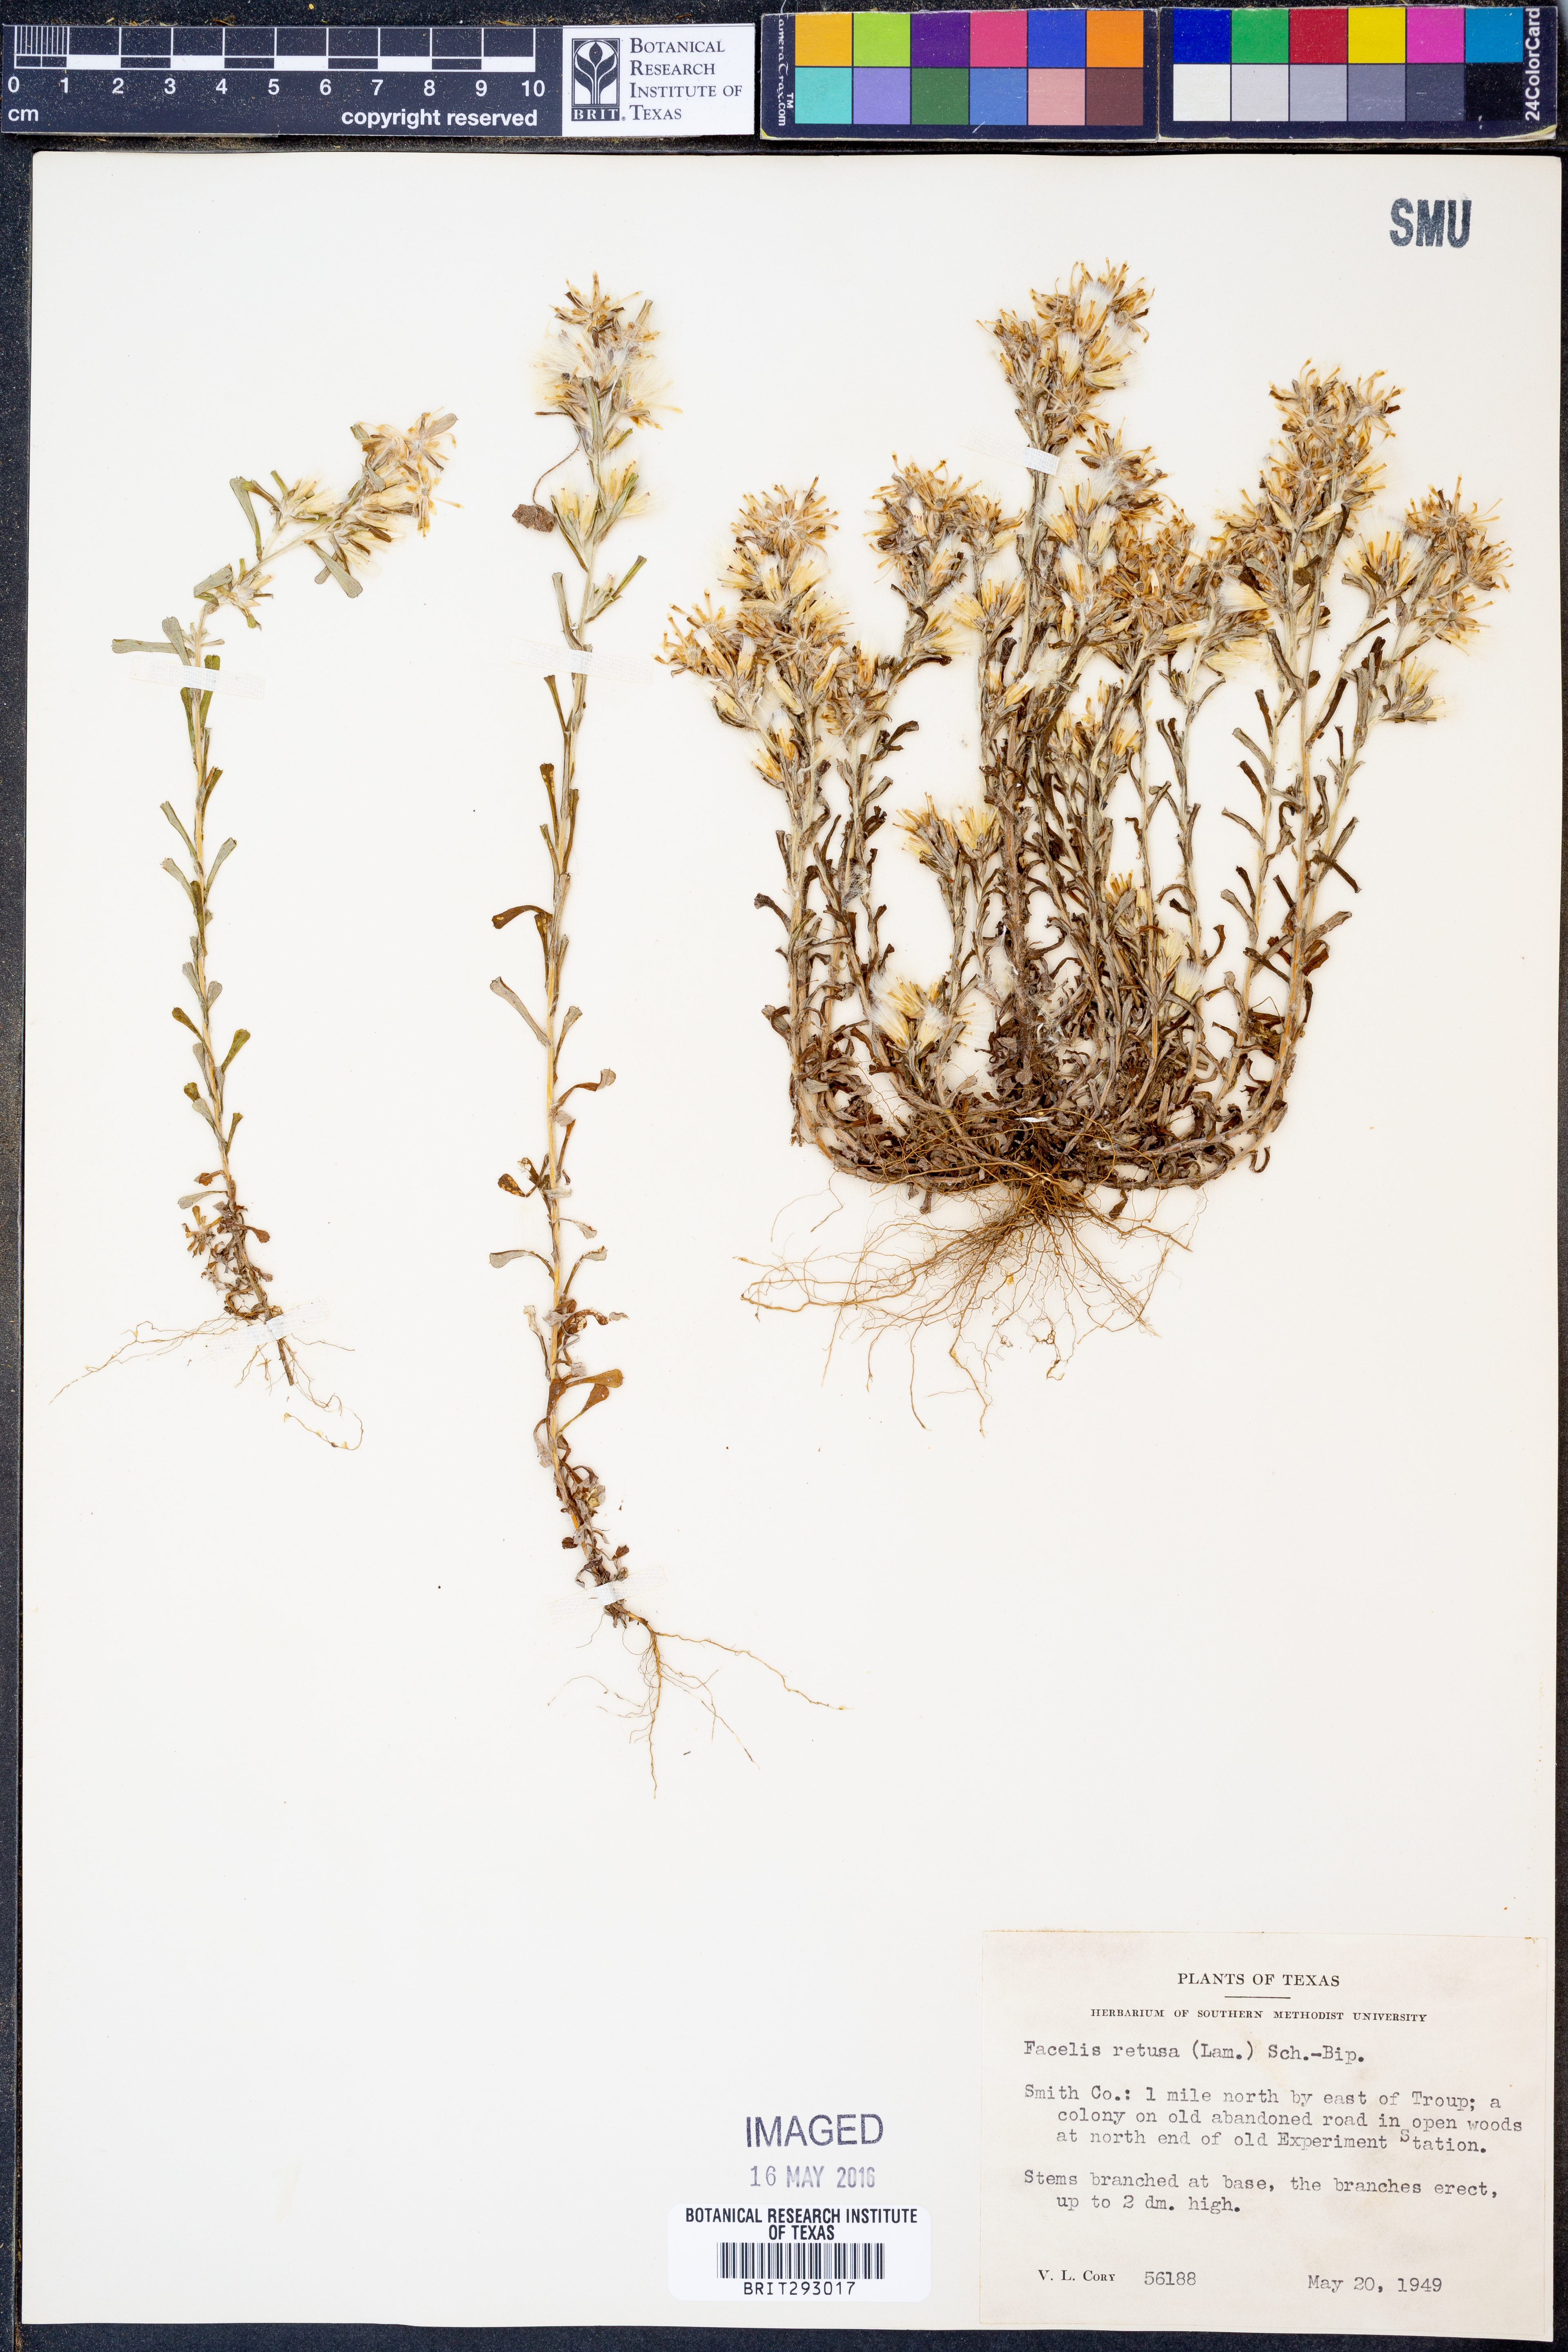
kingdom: Plantae
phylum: Tracheophyta
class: Magnoliopsida
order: Asterales
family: Asteraceae
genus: Facelis
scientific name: Facelis retusa
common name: Annual trampweed
